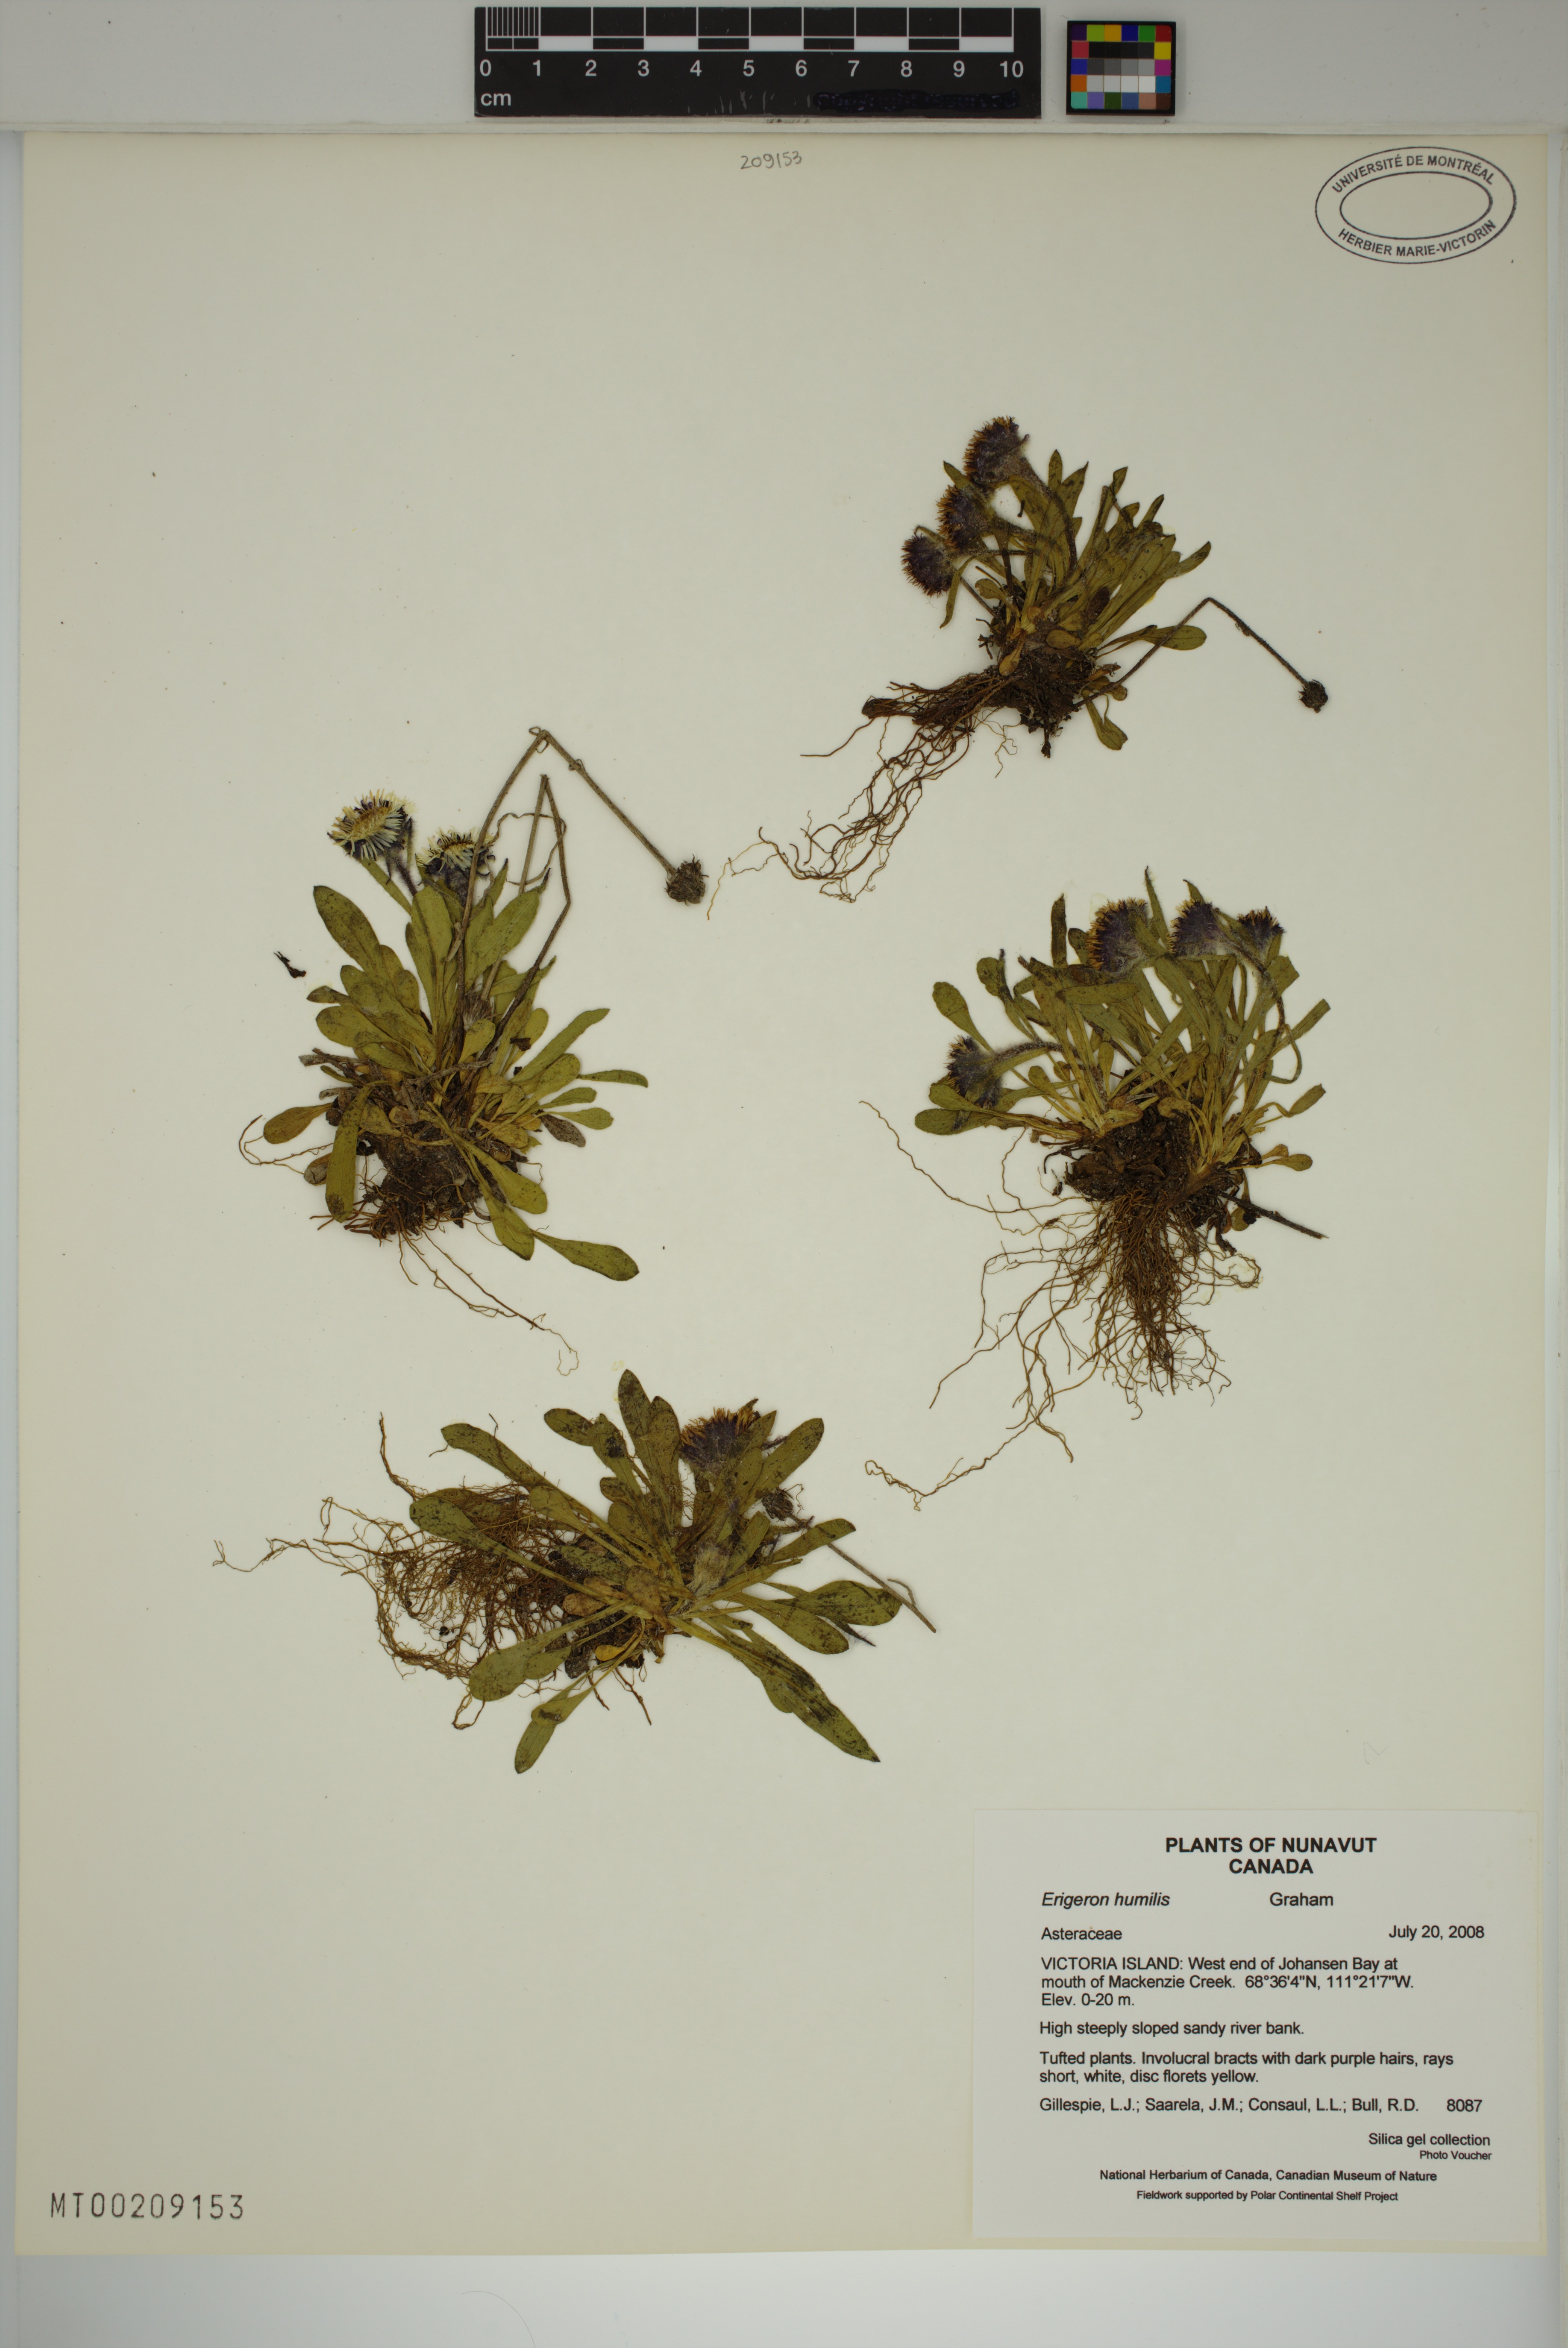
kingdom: Plantae
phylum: Tracheophyta
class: Magnoliopsida
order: Asterales
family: Asteraceae
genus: Erigeron
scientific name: Erigeron humilis
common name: Arctic-alpine fleabane
